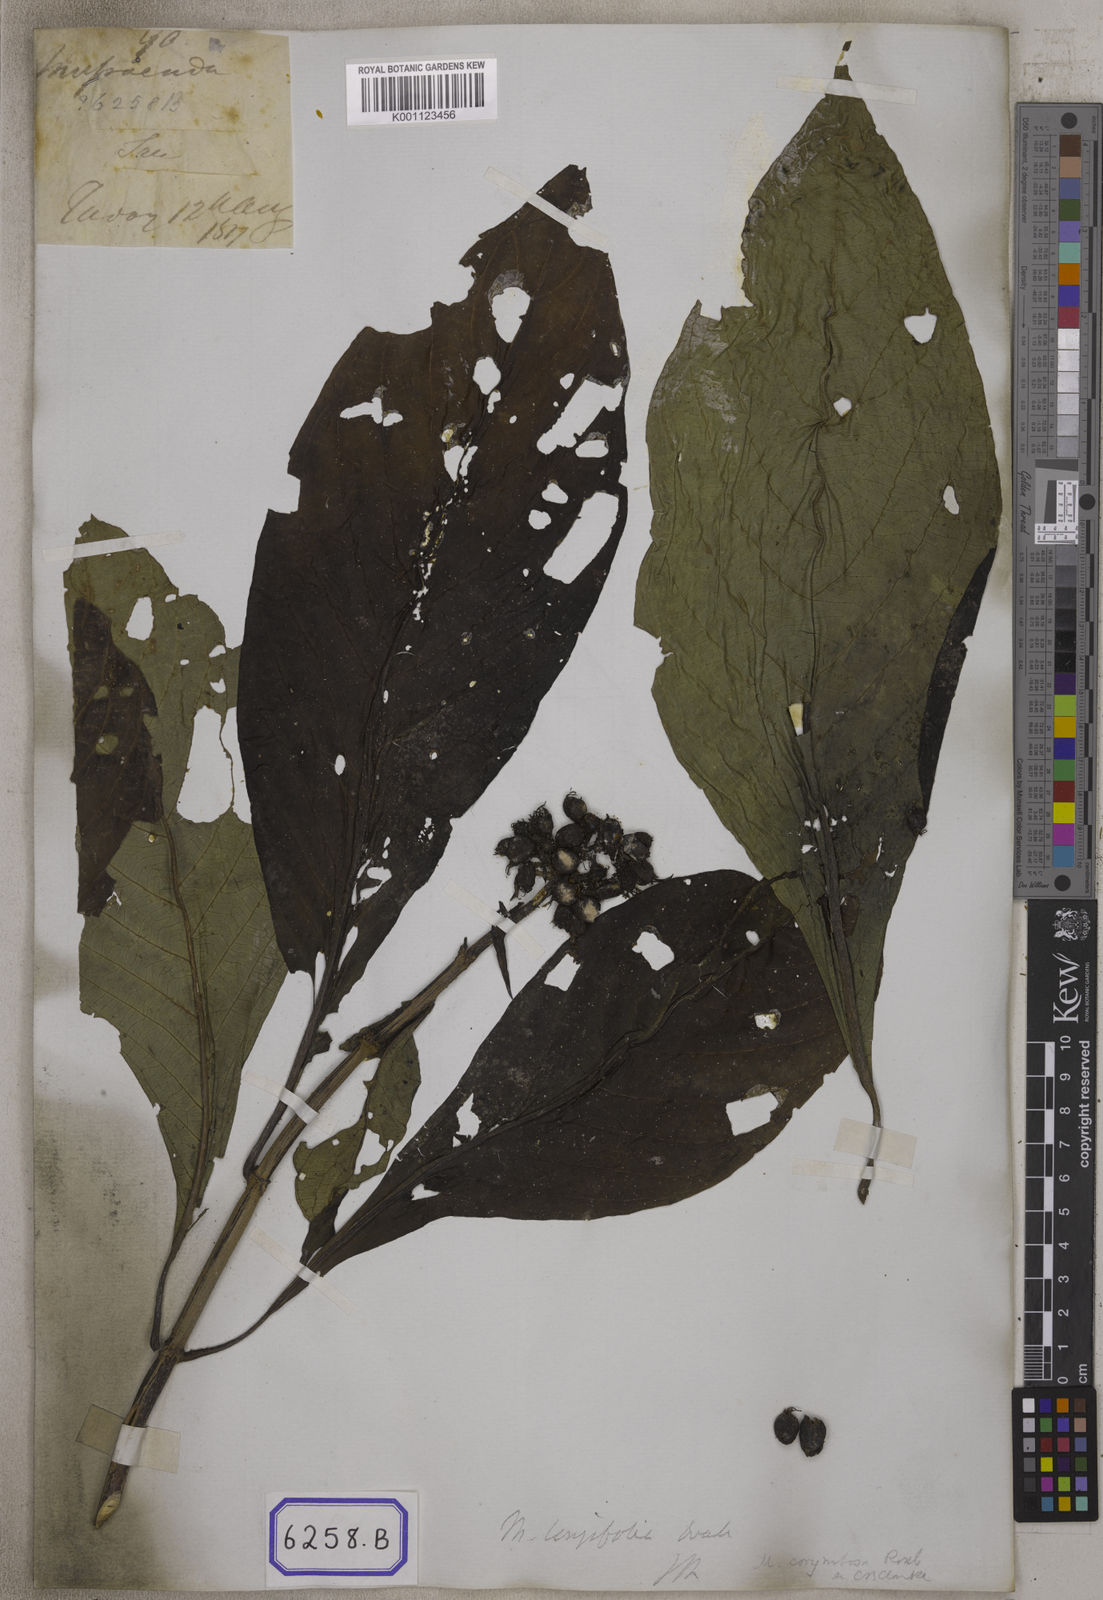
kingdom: Plantae
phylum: Tracheophyta
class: Magnoliopsida
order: Gentianales
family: Rubiaceae
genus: Mussaenda
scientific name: Mussaenda
